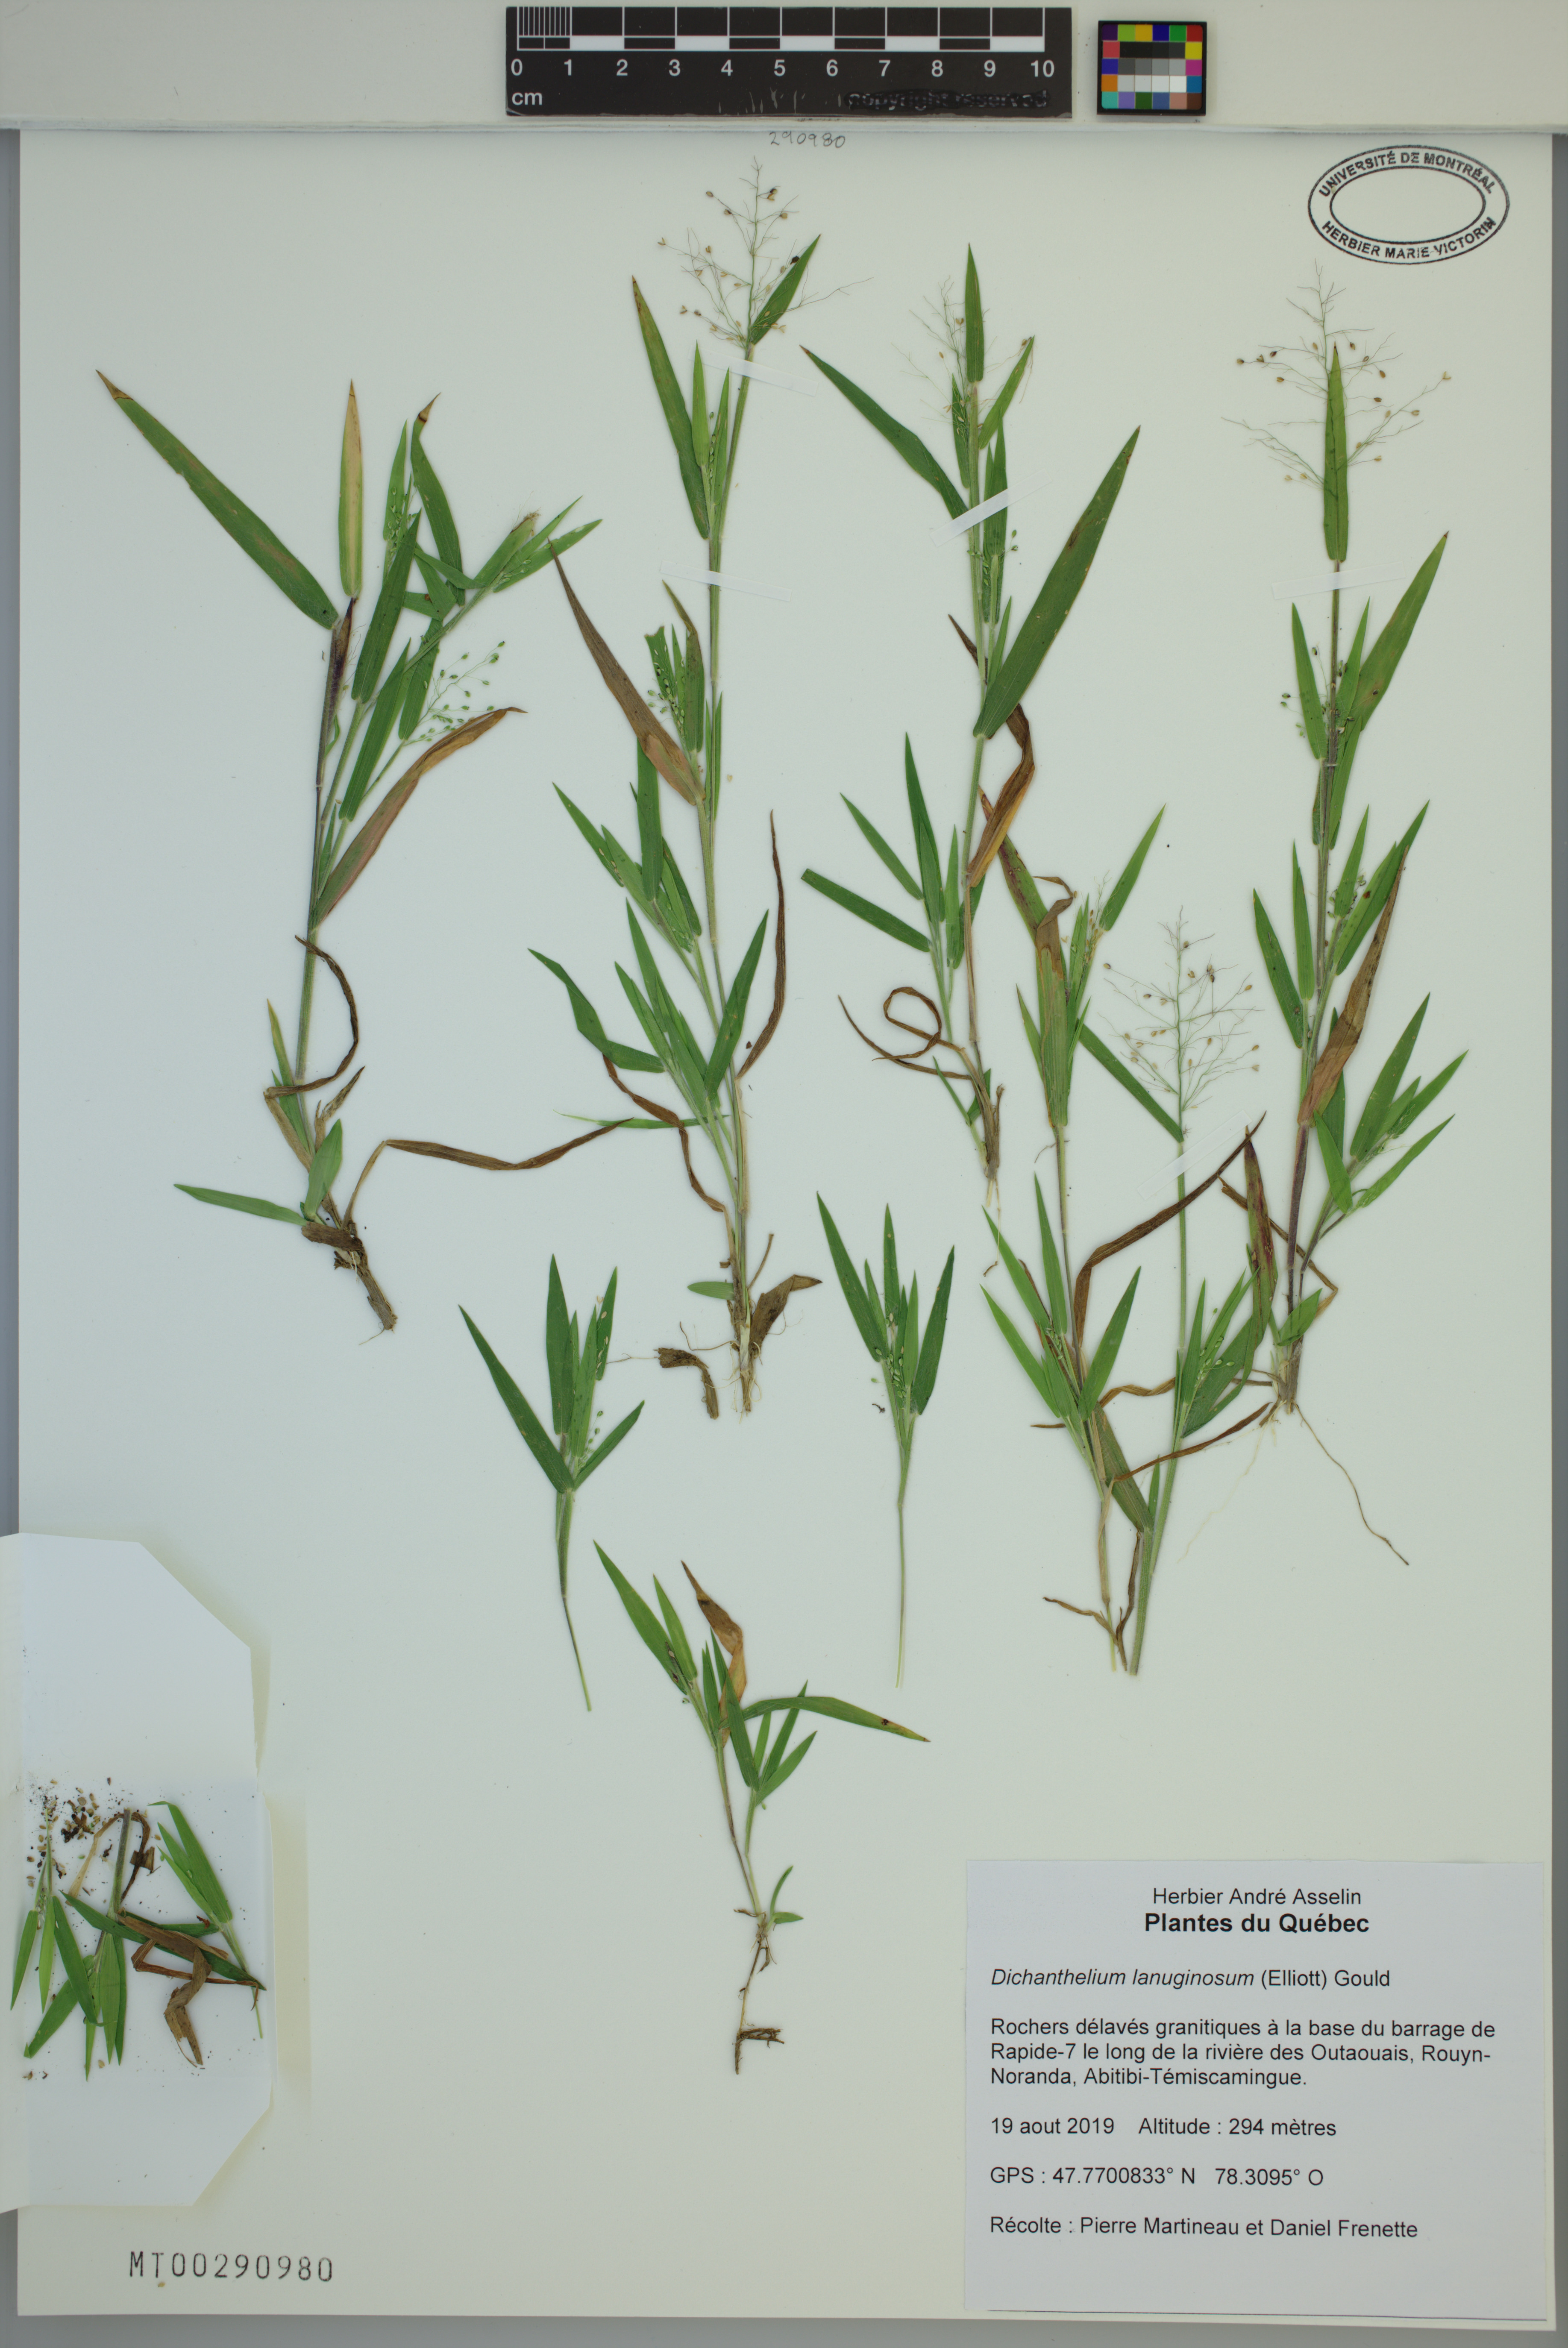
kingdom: Plantae
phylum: Tracheophyta
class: Liliopsida
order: Poales
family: Poaceae
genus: Dichanthelium
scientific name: Dichanthelium lanuginosum
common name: Woolly panicgrass
